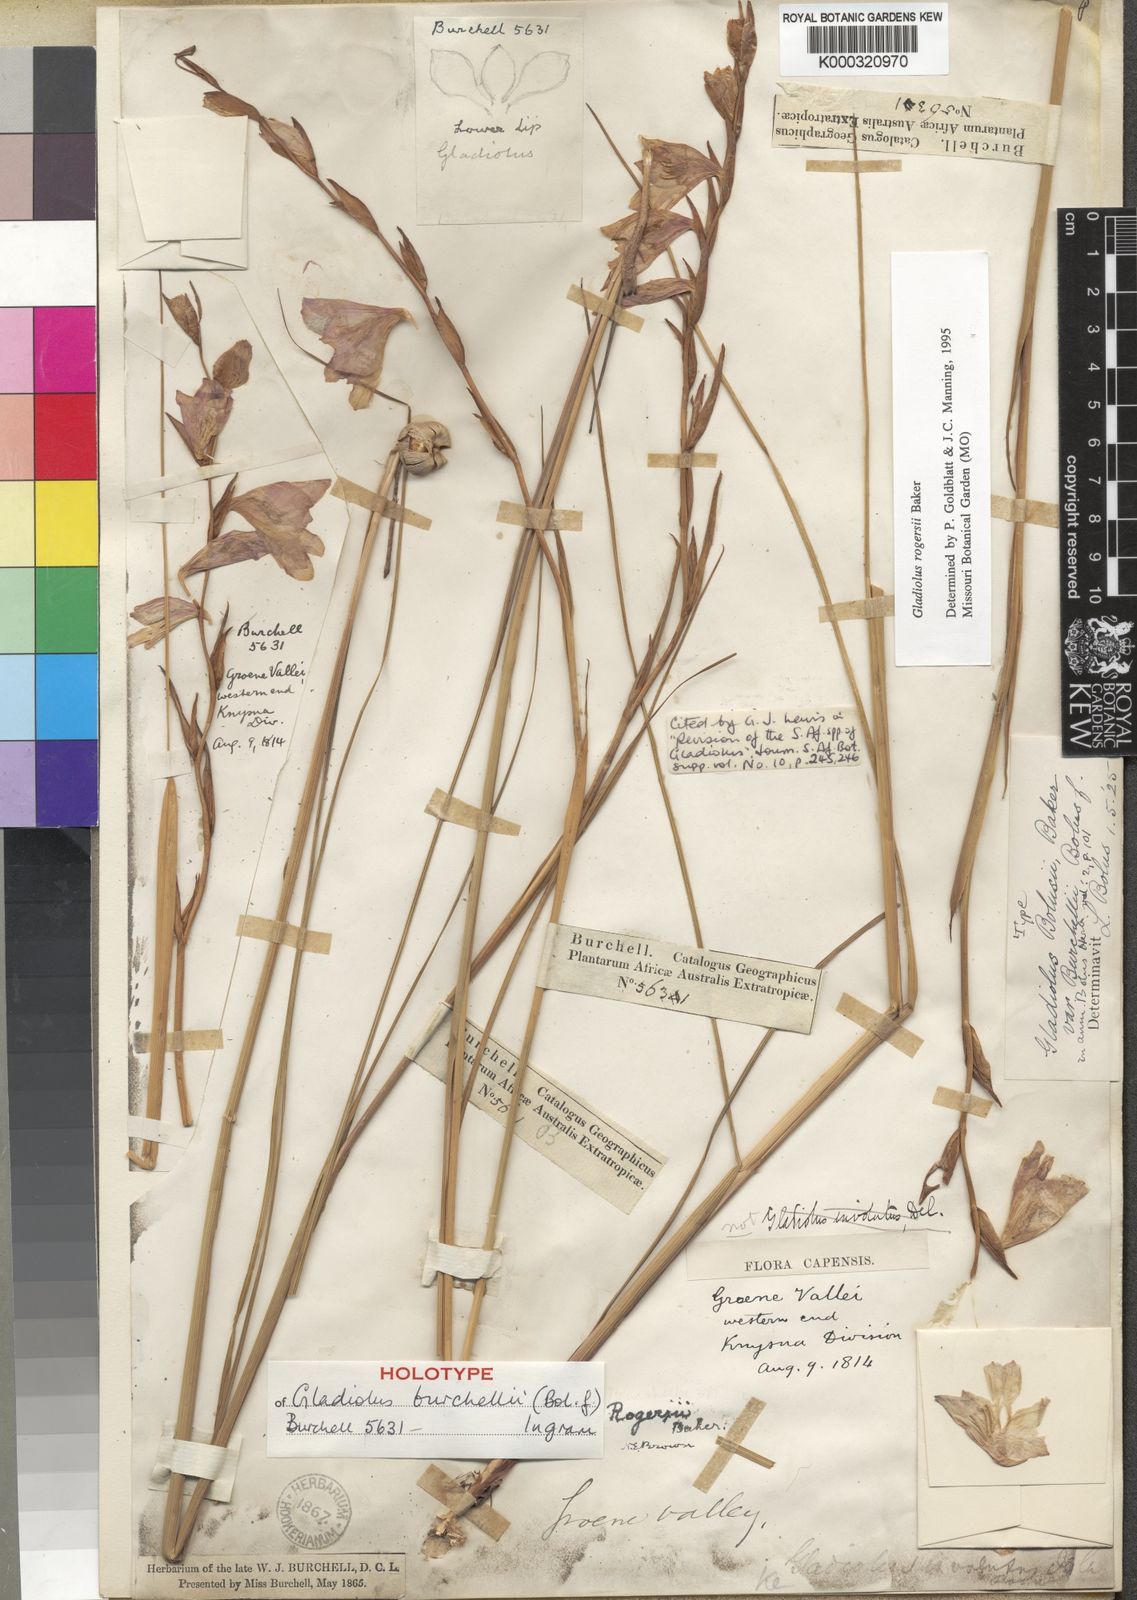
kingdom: Plantae
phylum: Tracheophyta
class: Liliopsida
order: Asparagales
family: Iridaceae
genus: Gladiolus
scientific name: Gladiolus rogersii
